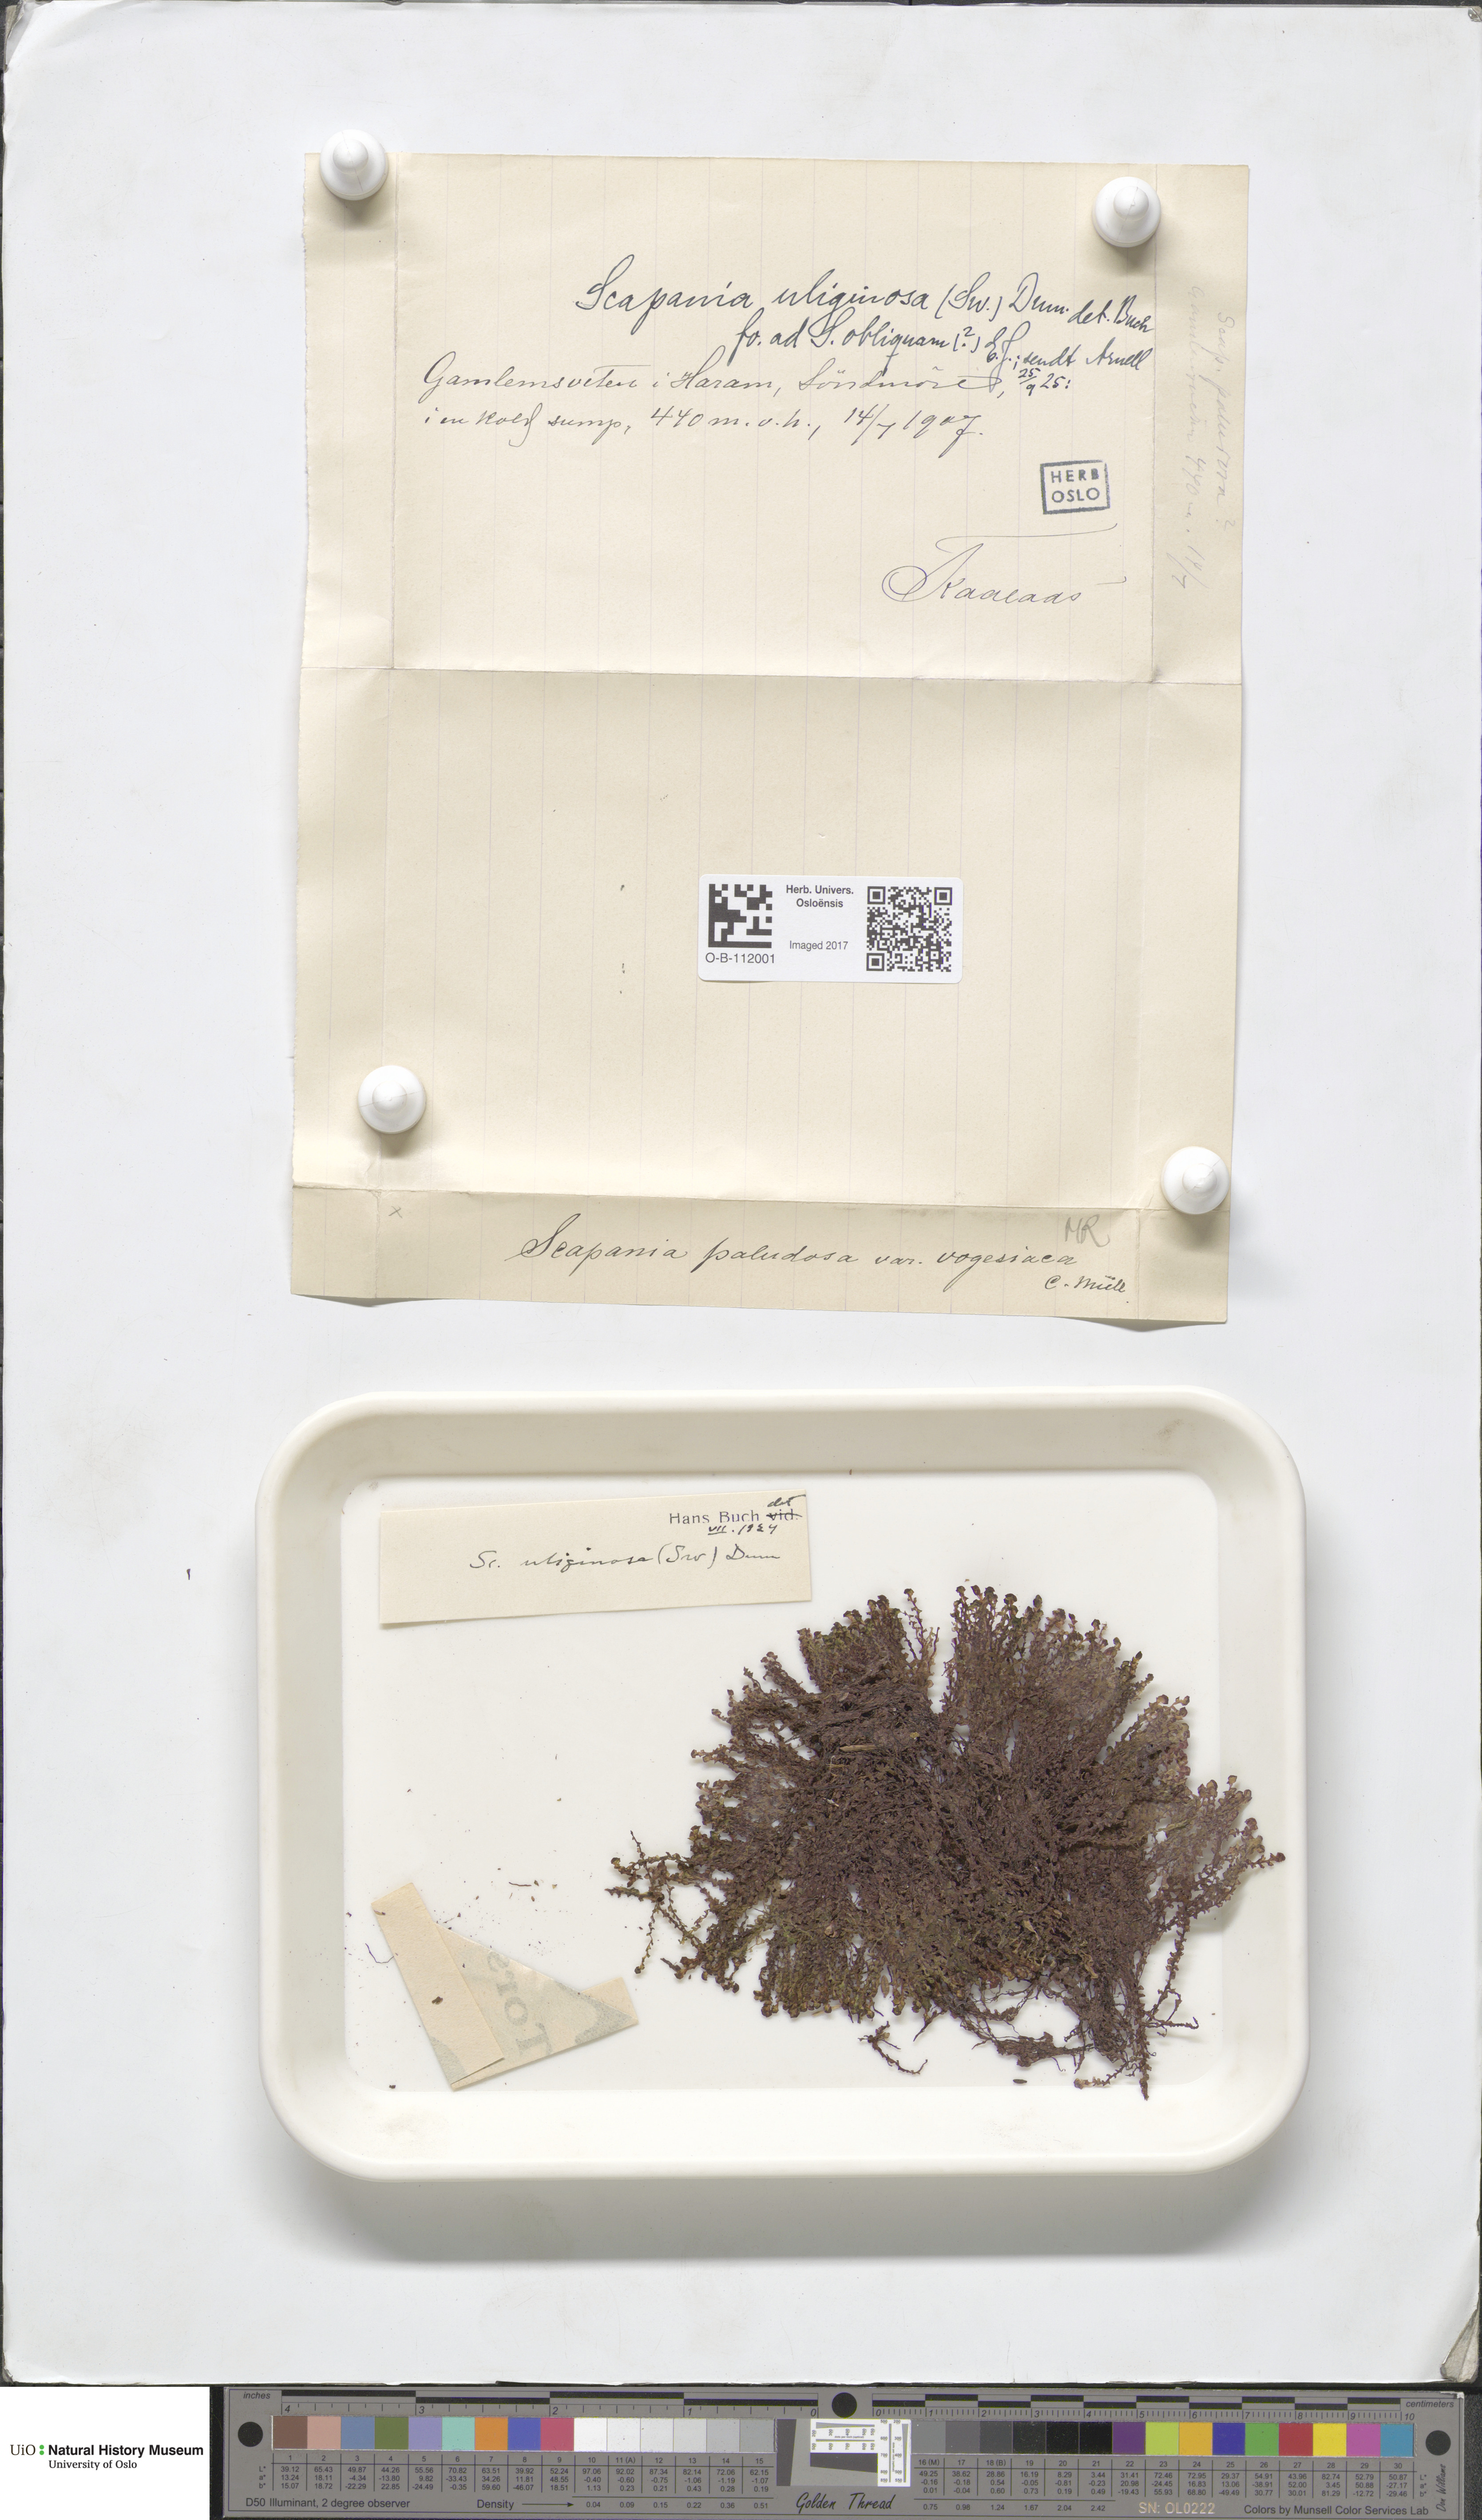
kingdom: Plantae
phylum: Marchantiophyta
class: Jungermanniopsida
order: Jungermanniales
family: Scapaniaceae
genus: Scapania
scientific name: Scapania paludosa
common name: Floppy earwort
